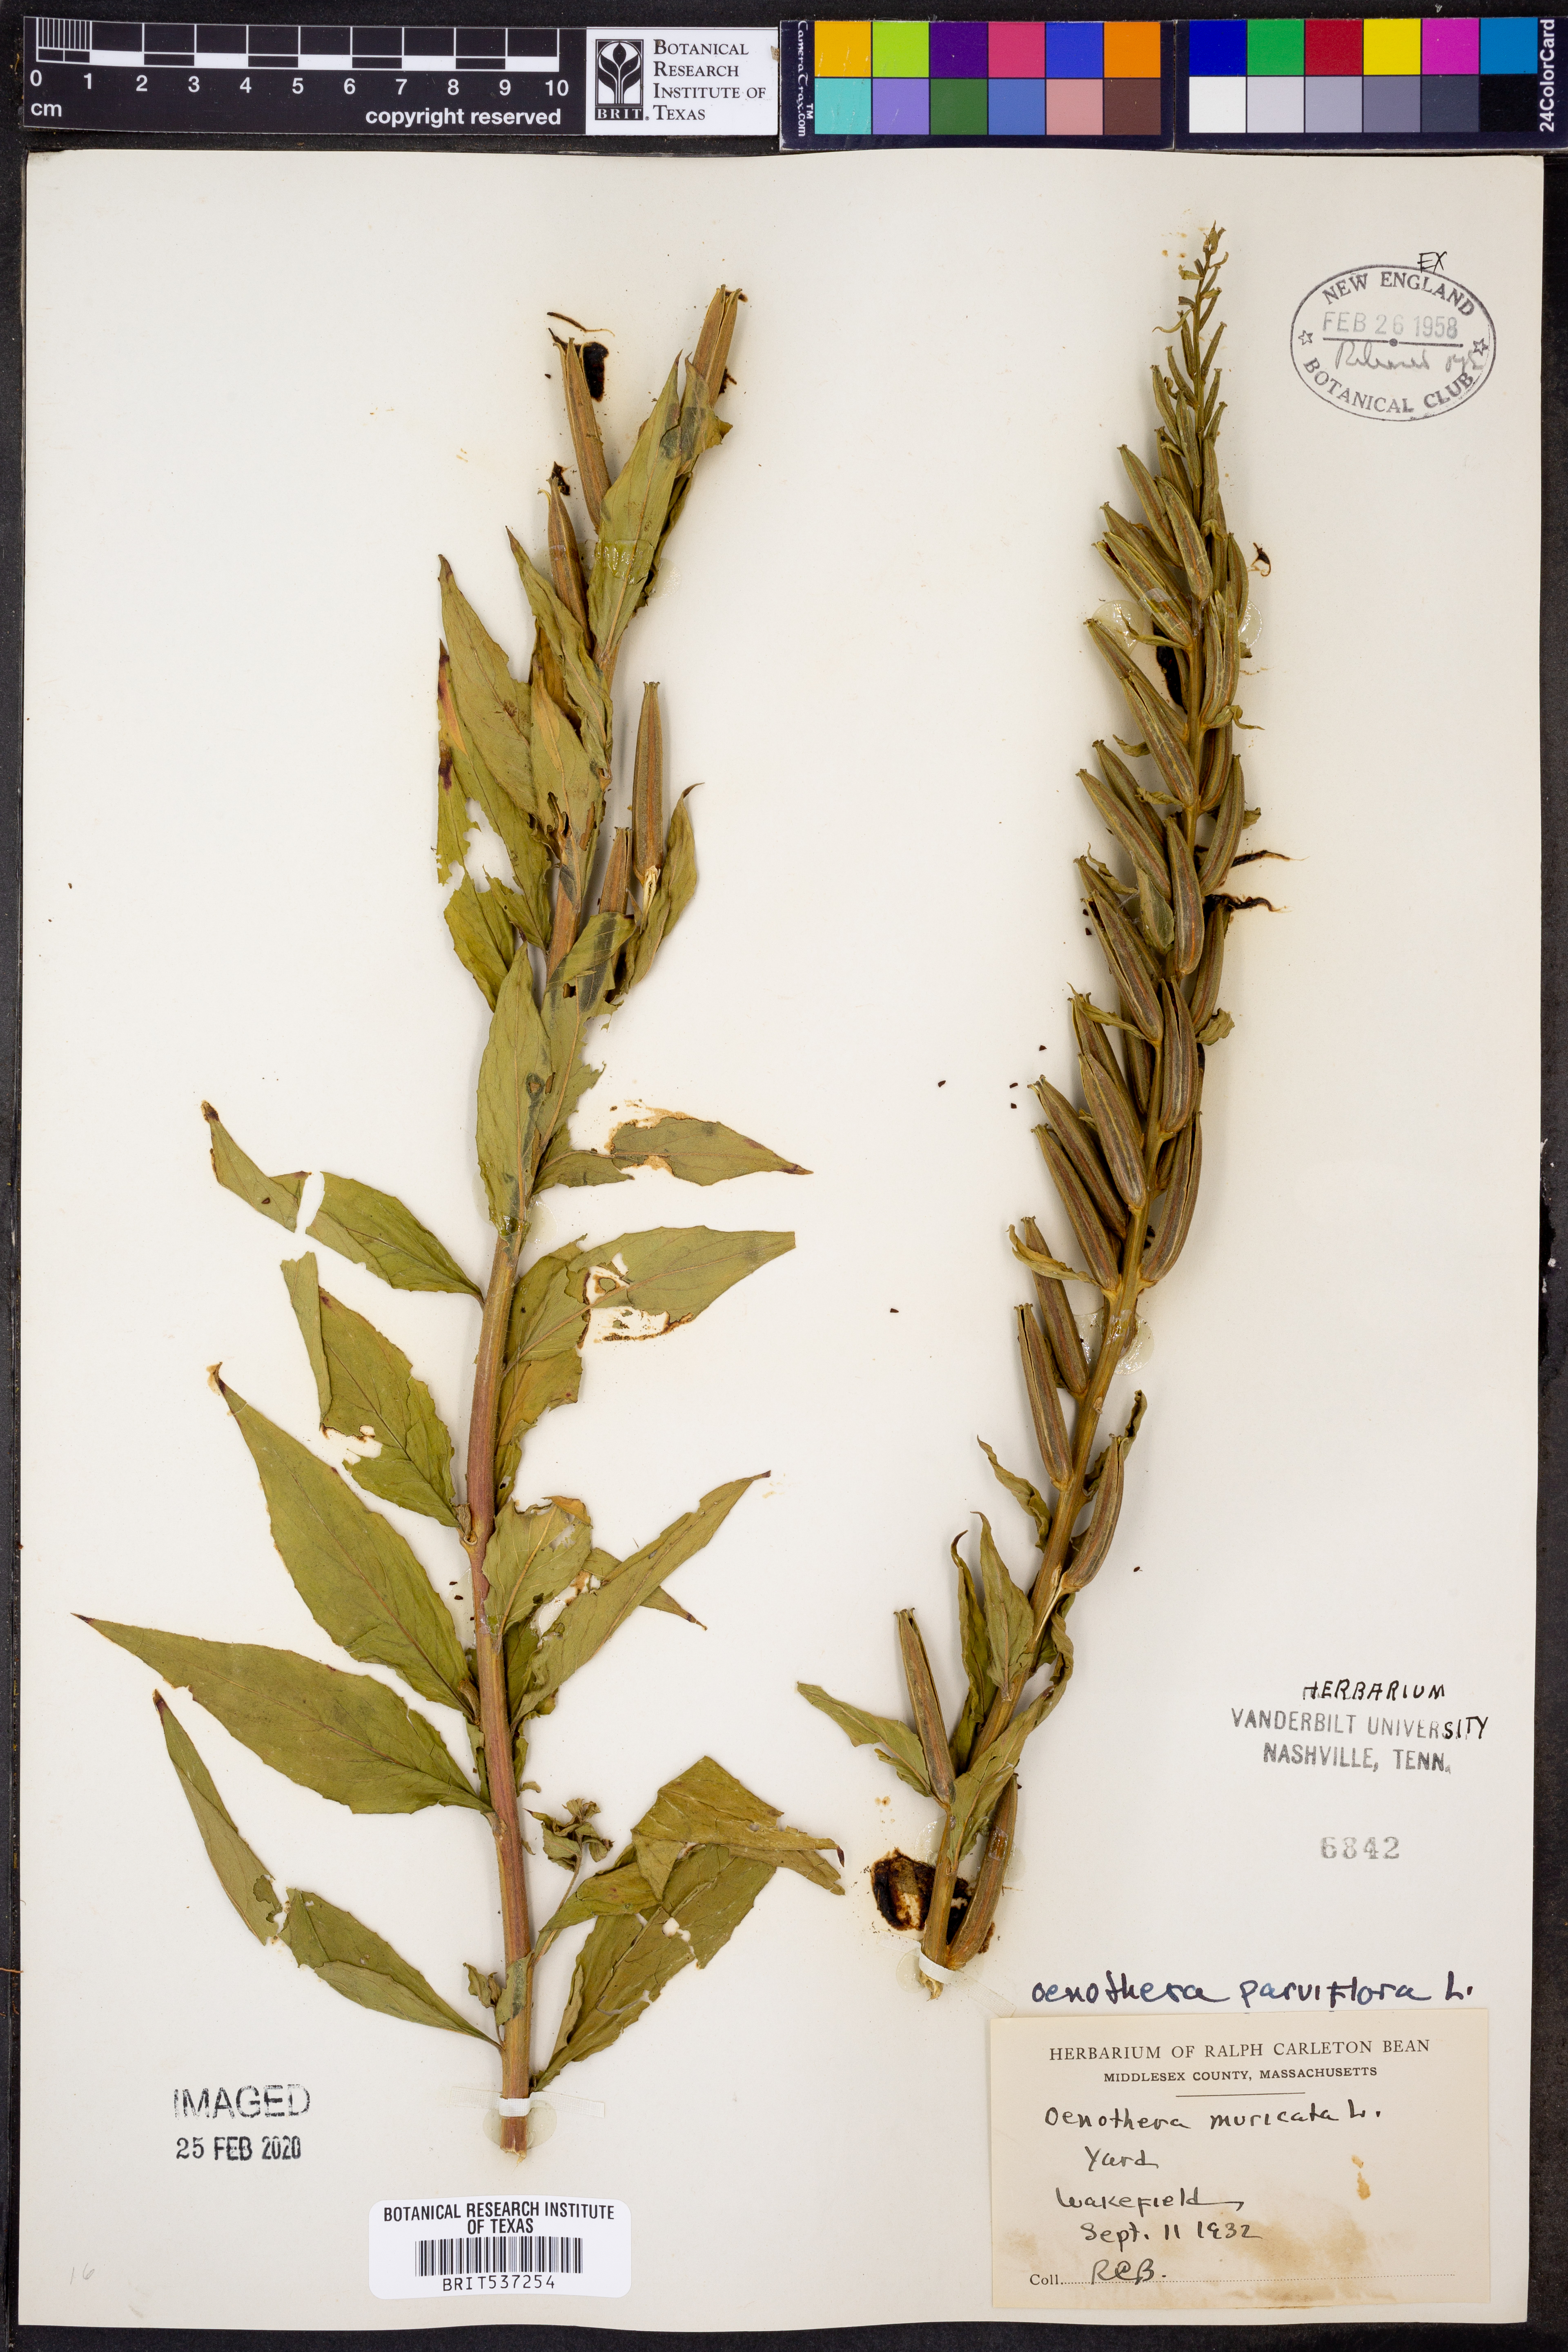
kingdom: Plantae
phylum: Tracheophyta
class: Magnoliopsida
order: Myrtales
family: Onagraceae
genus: Oenothera
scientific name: Oenothera parviflora
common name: Least evening-primrose
